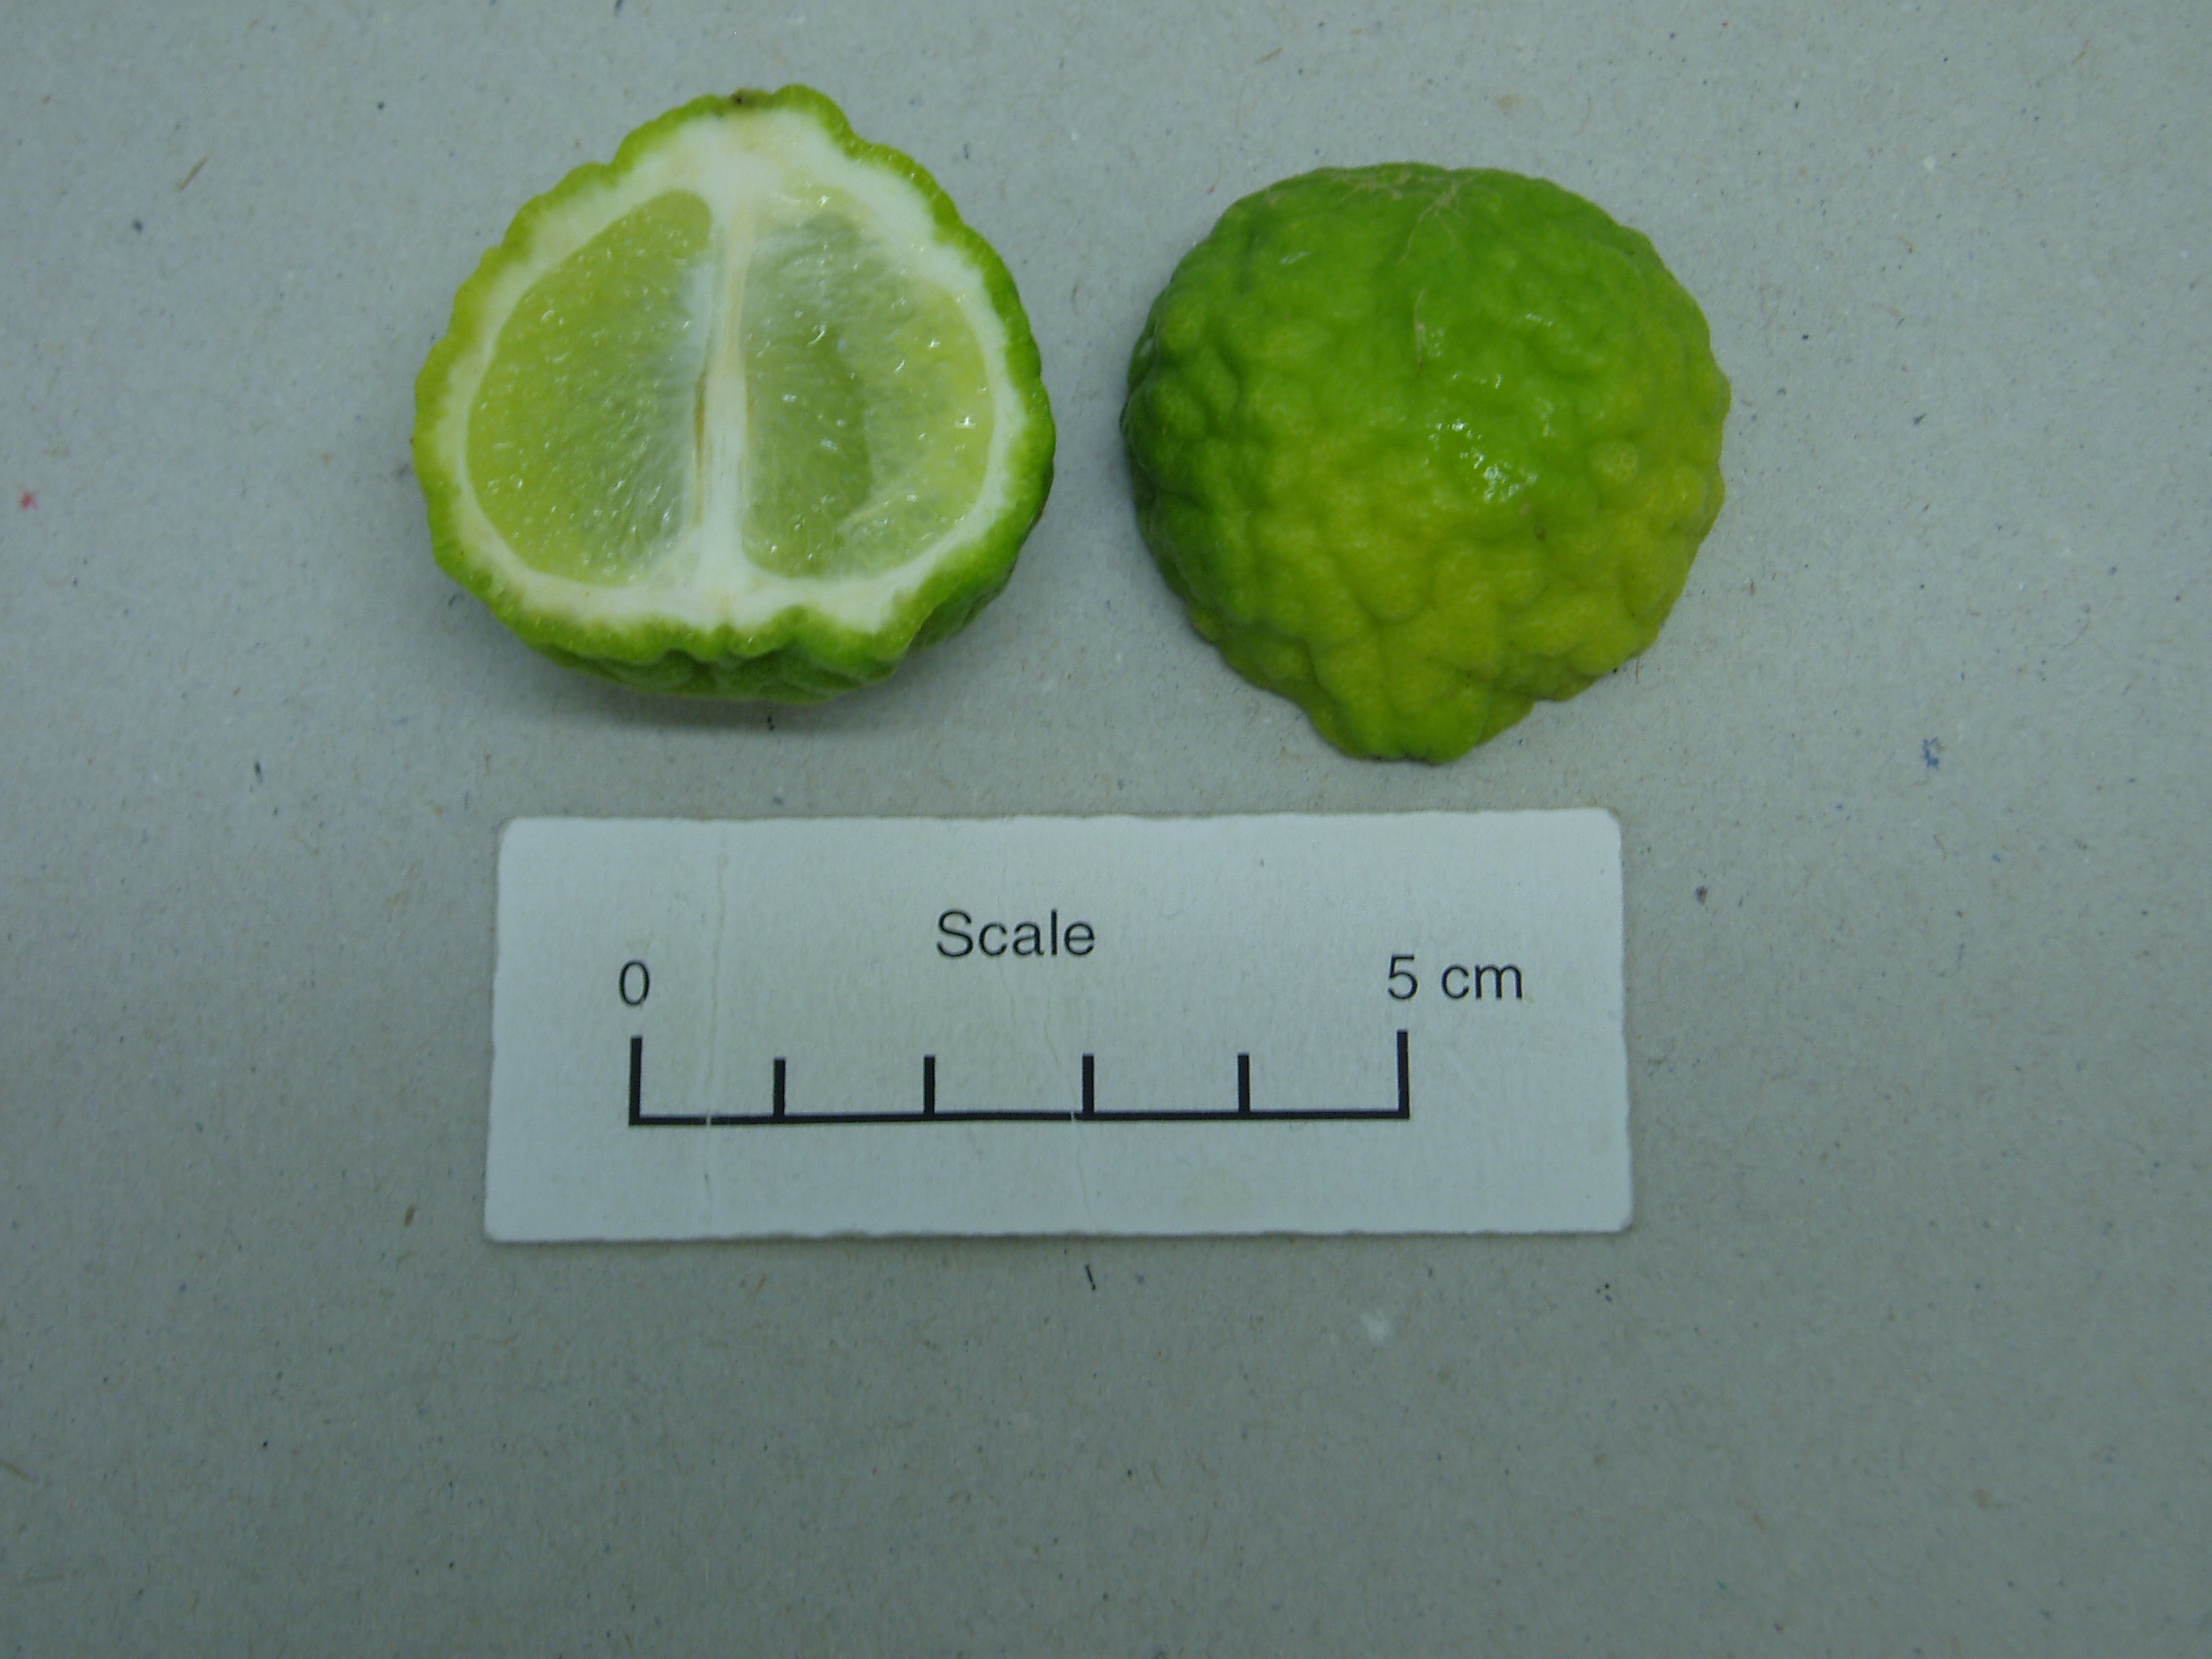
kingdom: Plantae
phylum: Tracheophyta
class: Magnoliopsida
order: Sapindales
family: Rutaceae
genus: Citrus
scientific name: Citrus hystrix
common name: Kaffir-lime
